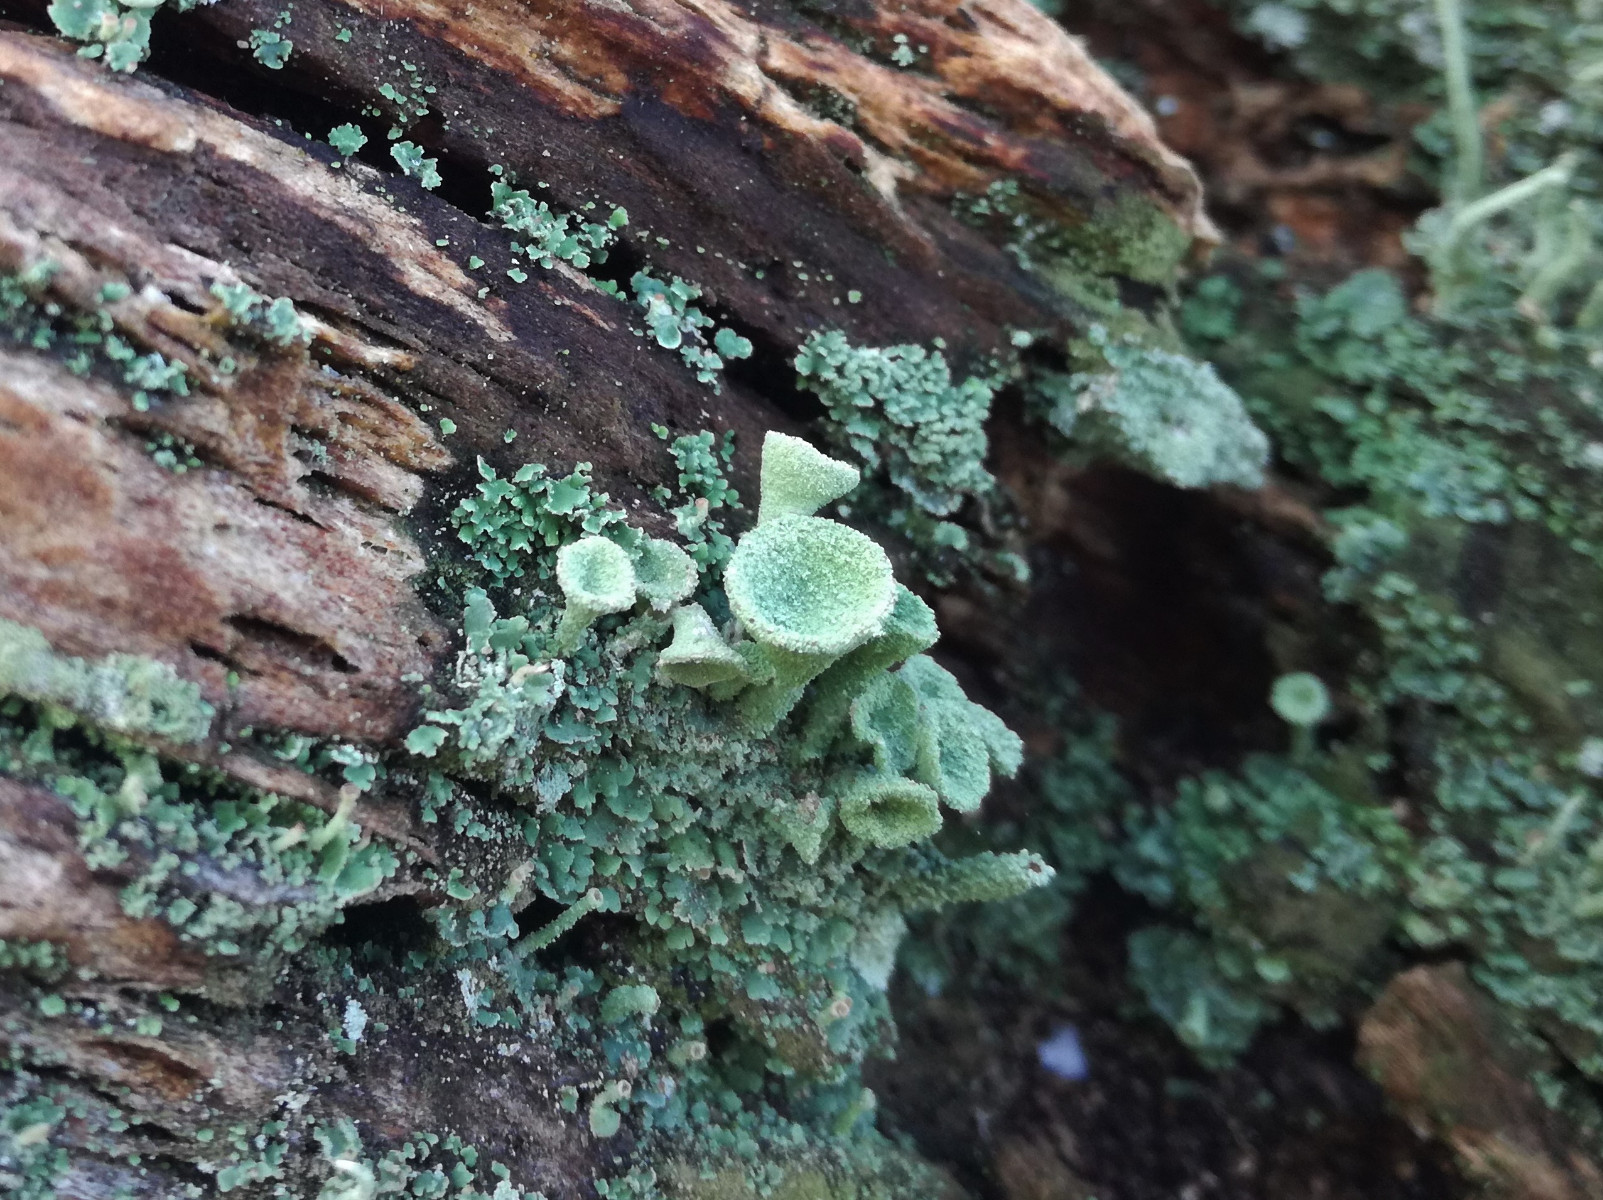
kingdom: Fungi
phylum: Ascomycota
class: Lecanoromycetes
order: Lecanorales
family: Cladoniaceae
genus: Cladonia
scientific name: Cladonia
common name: brungrøn bægerlav
